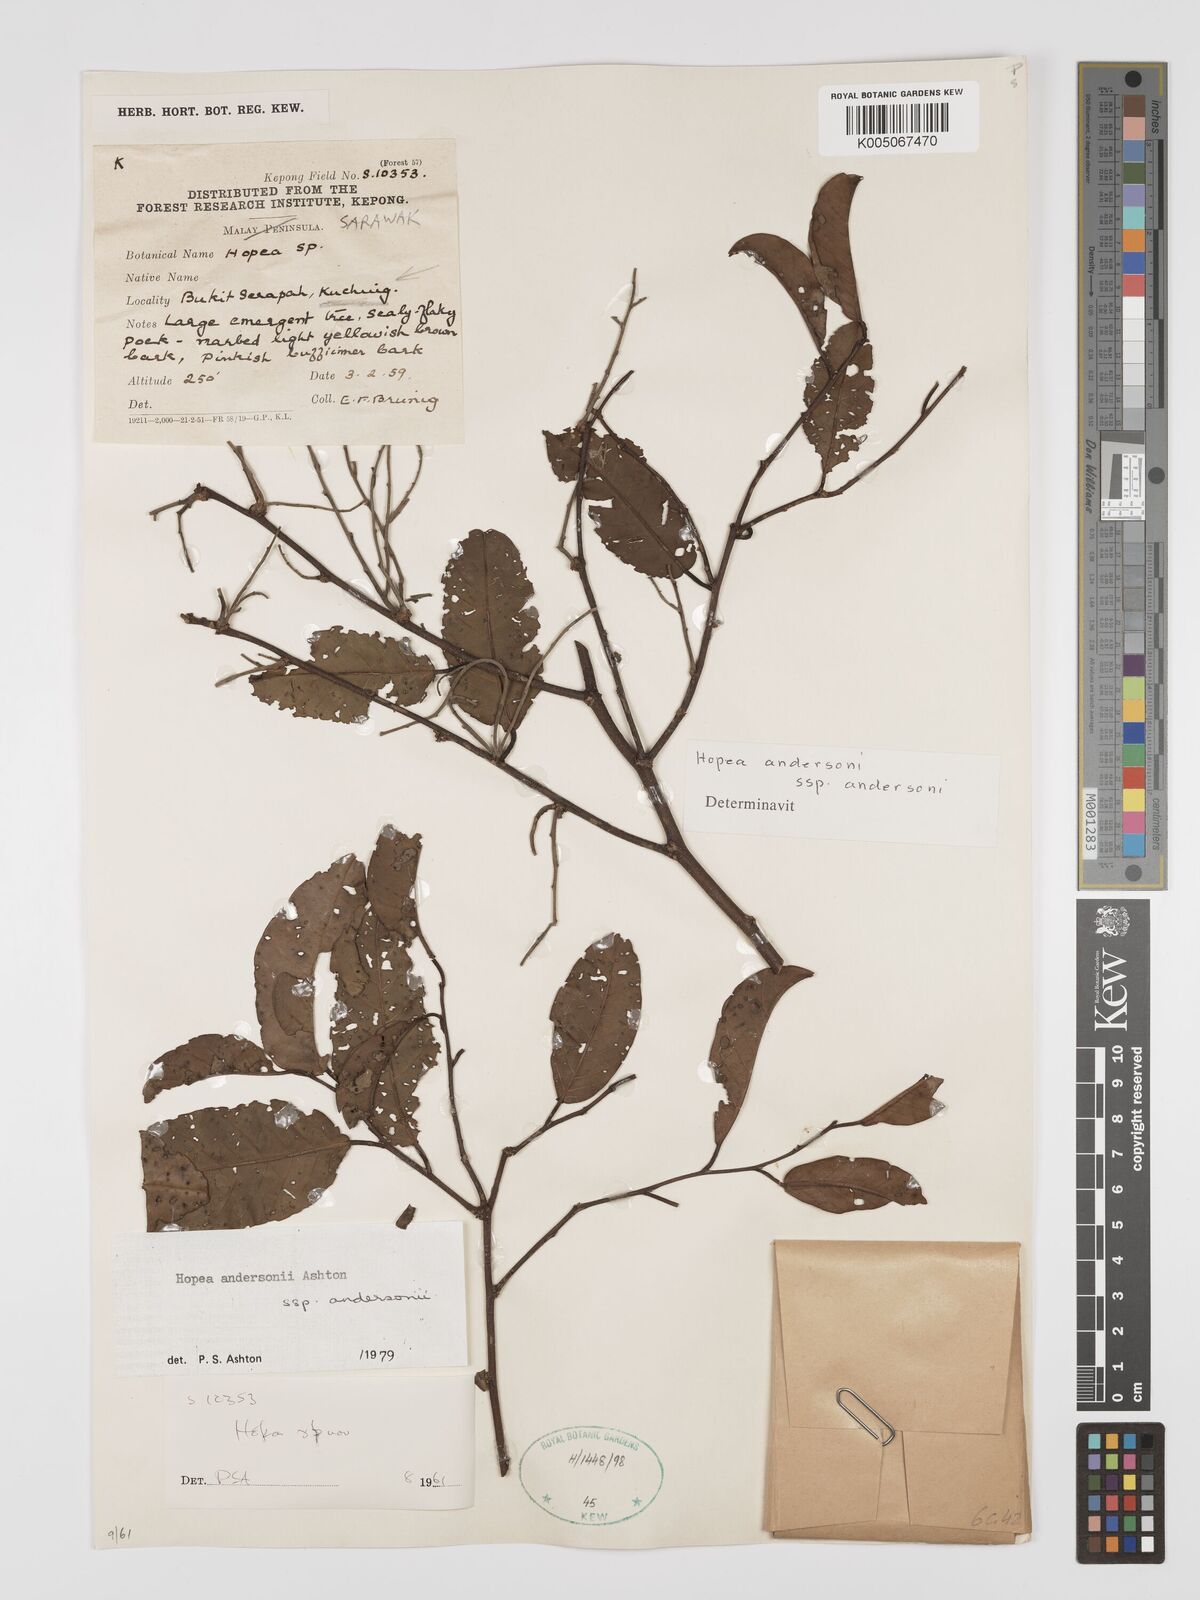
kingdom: Plantae
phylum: Tracheophyta
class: Magnoliopsida
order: Malvales
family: Dipterocarpaceae
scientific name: Dipterocarpaceae
